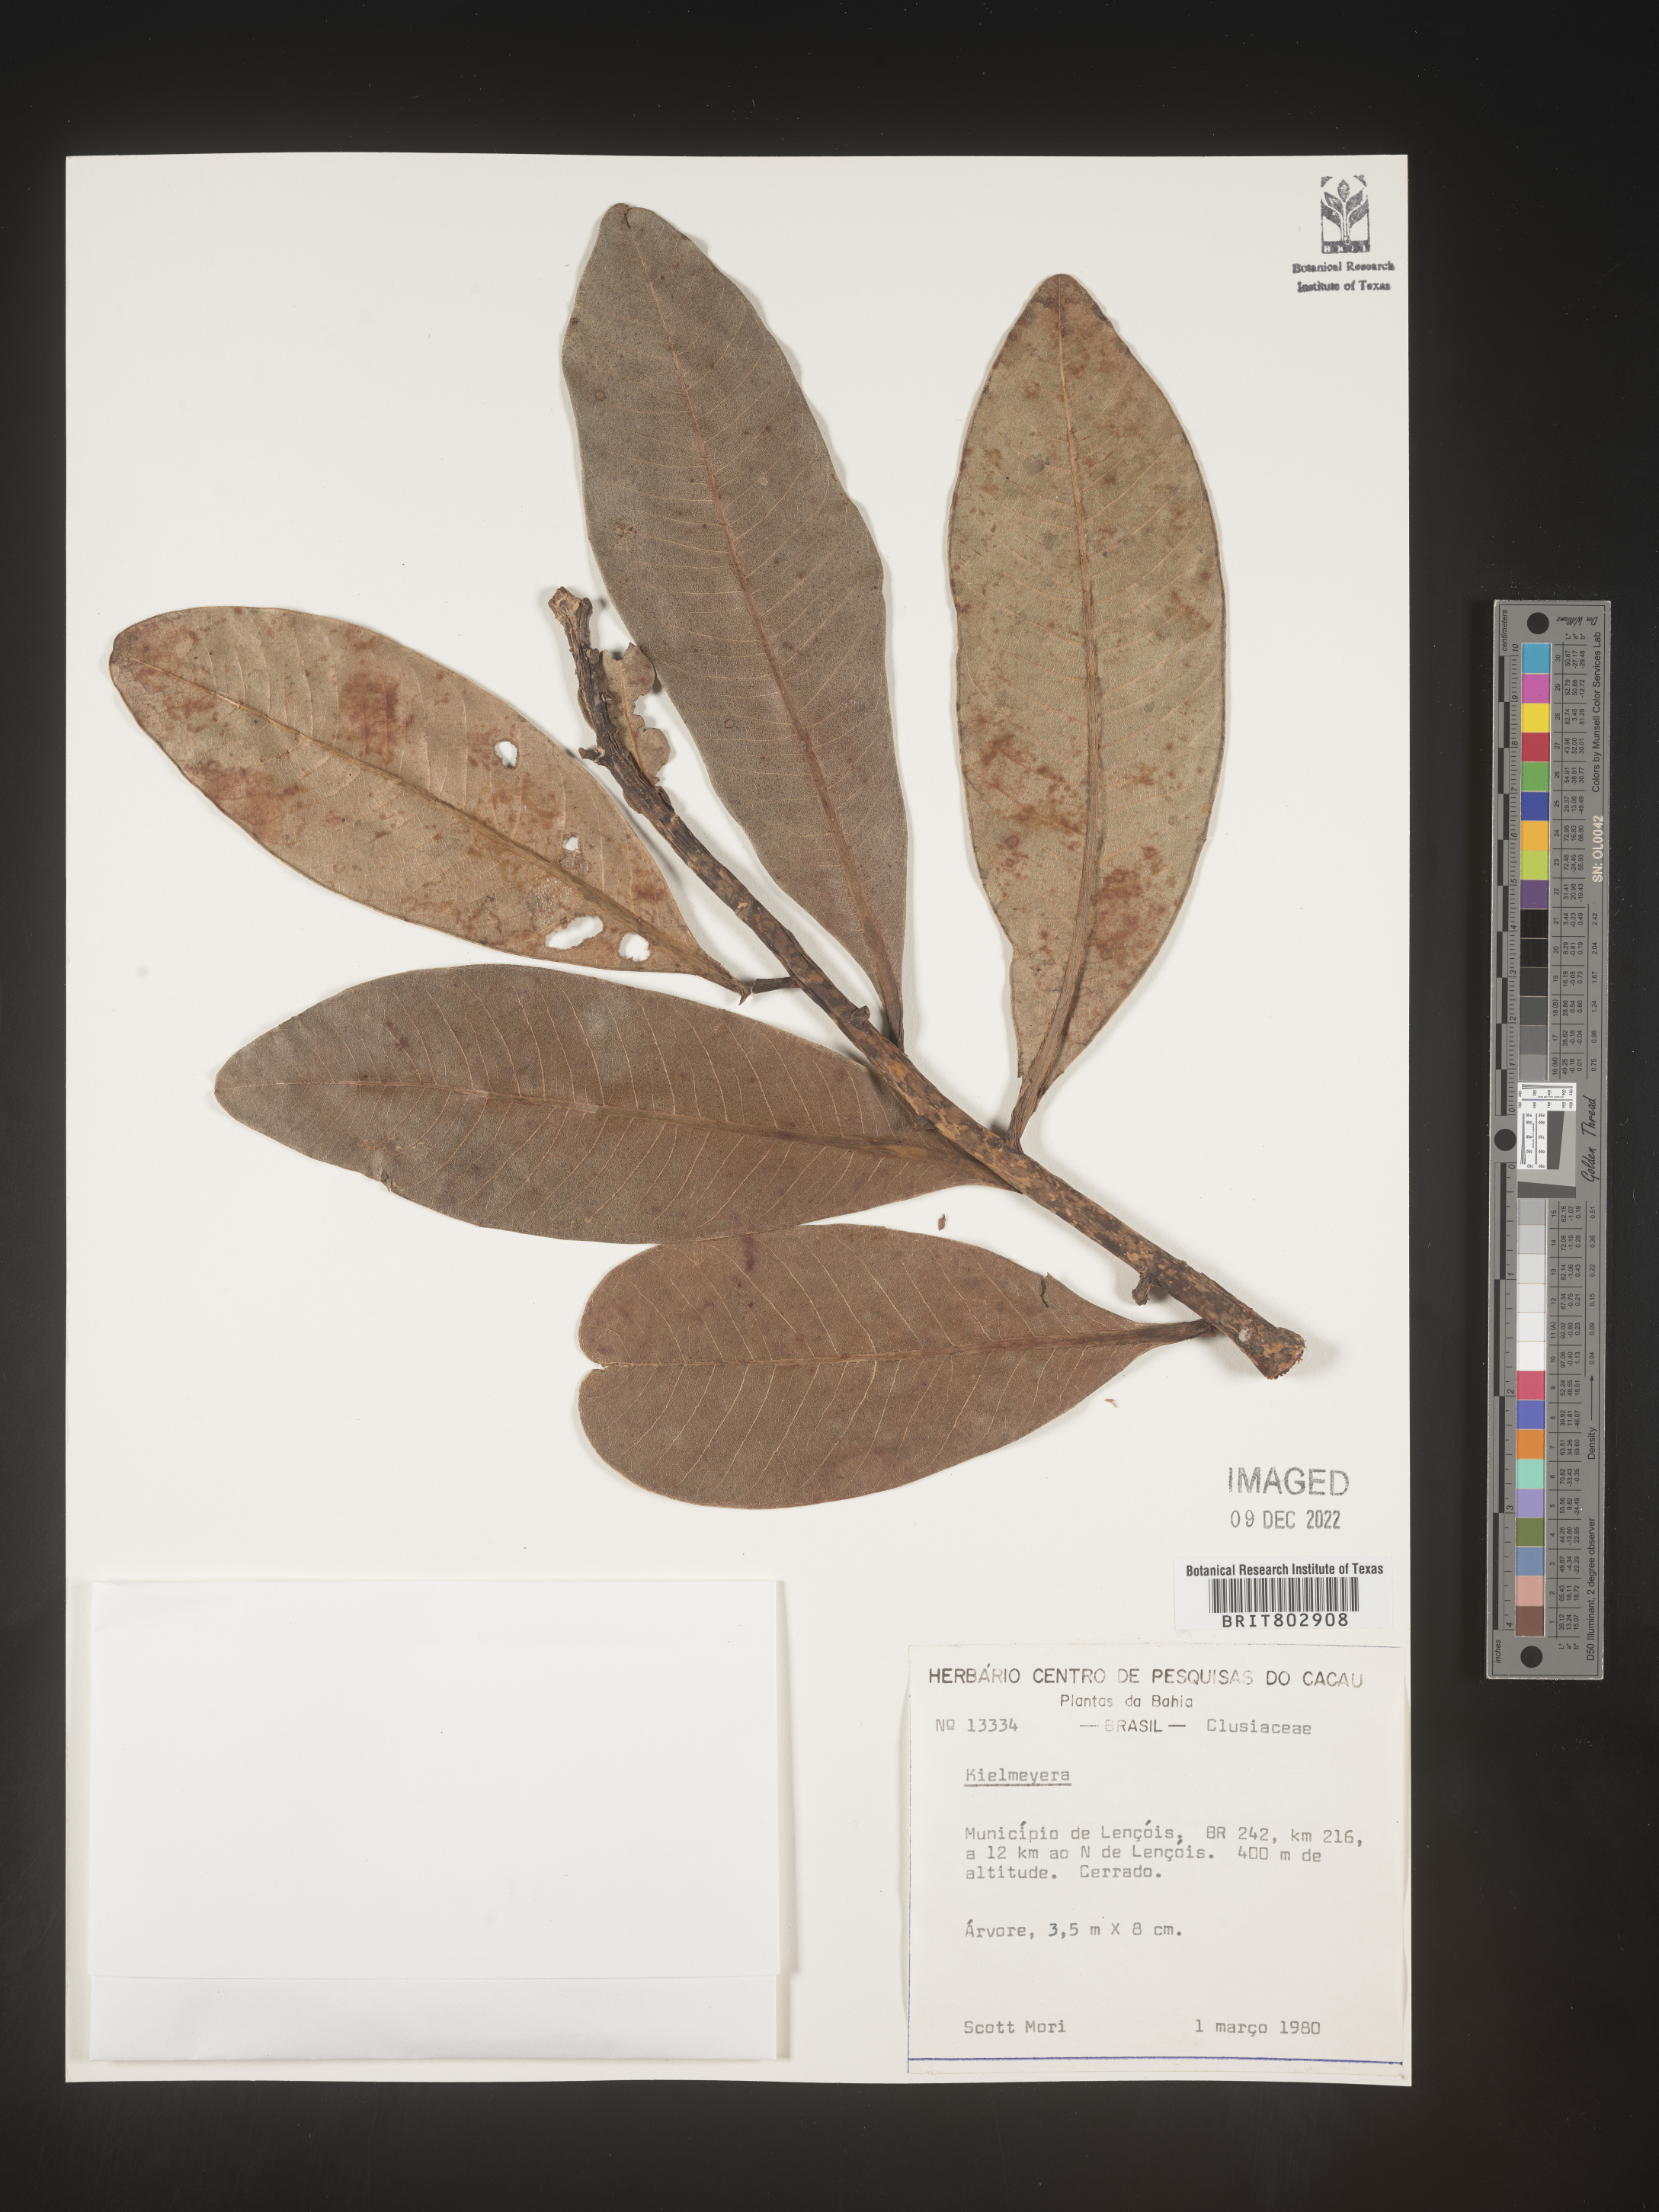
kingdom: Plantae
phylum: Tracheophyta
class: Magnoliopsida
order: Malpighiales
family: Calophyllaceae
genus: Kielmeyera
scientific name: Kielmeyera
